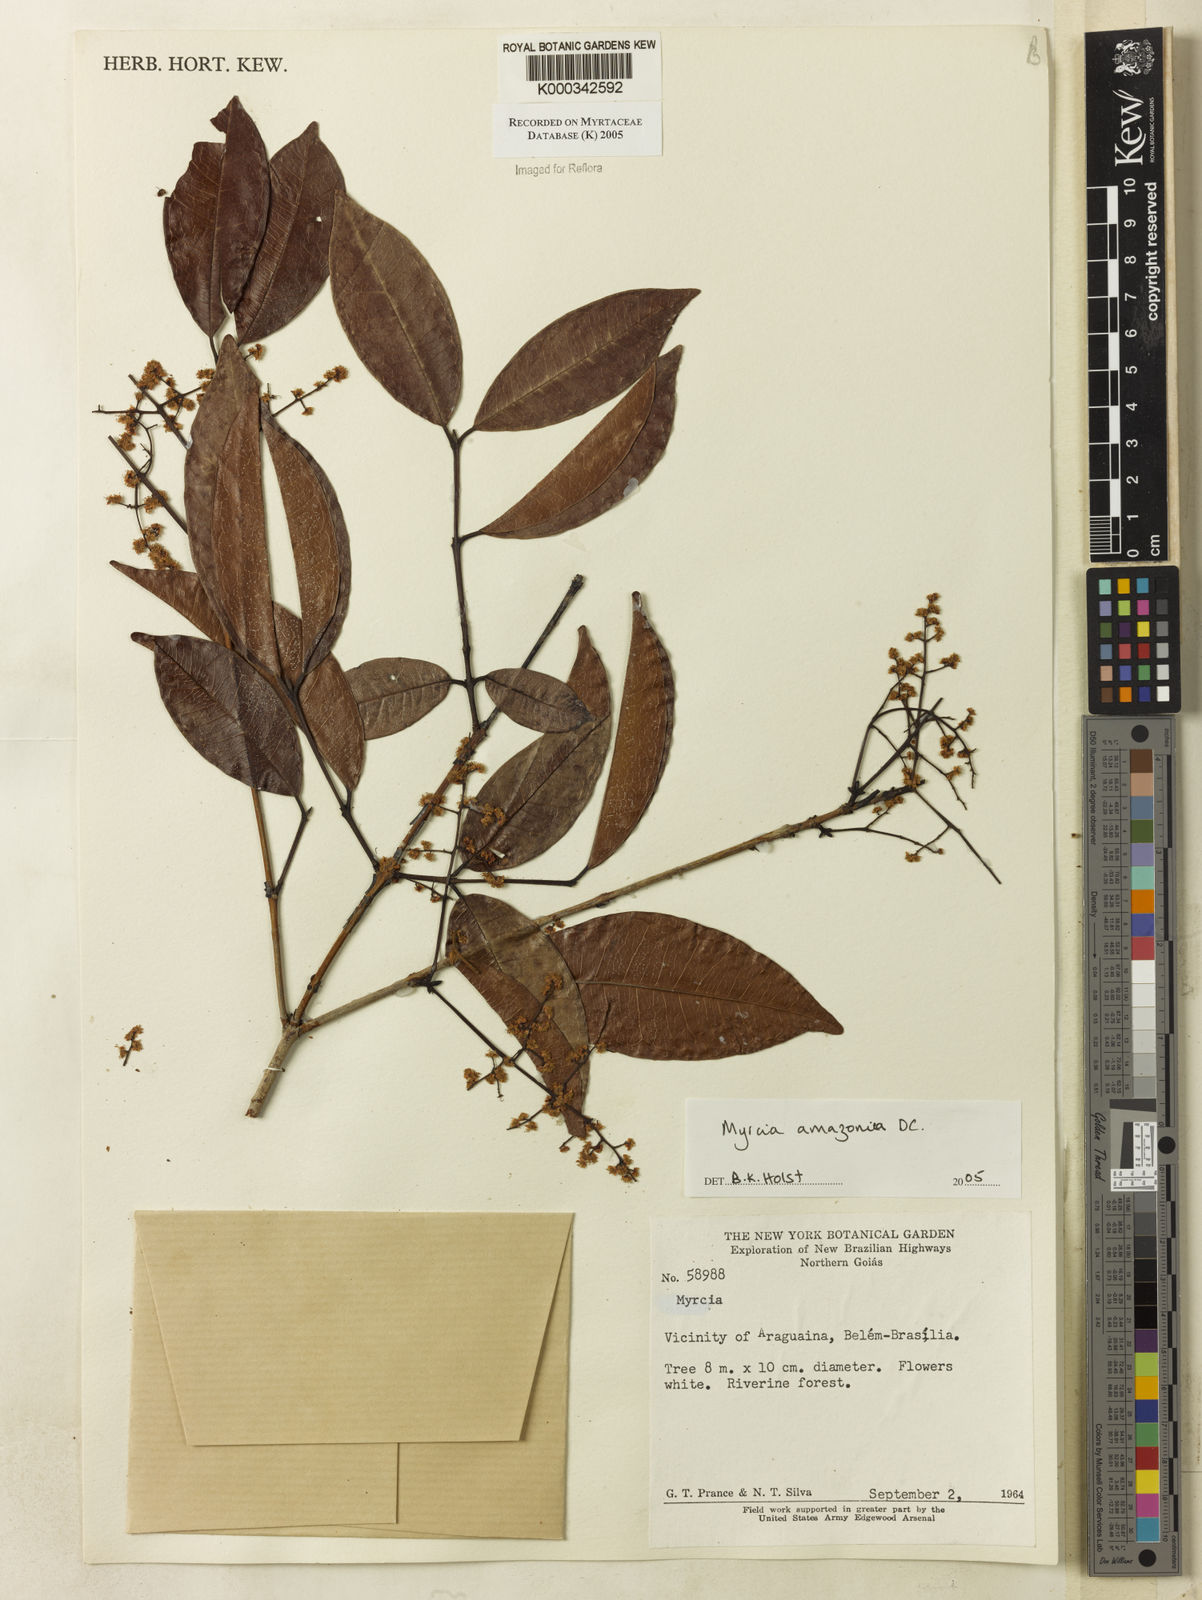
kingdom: Plantae
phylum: Tracheophyta
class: Magnoliopsida
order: Myrtales
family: Myrtaceae
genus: Myrcia
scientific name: Myrcia amazonica
